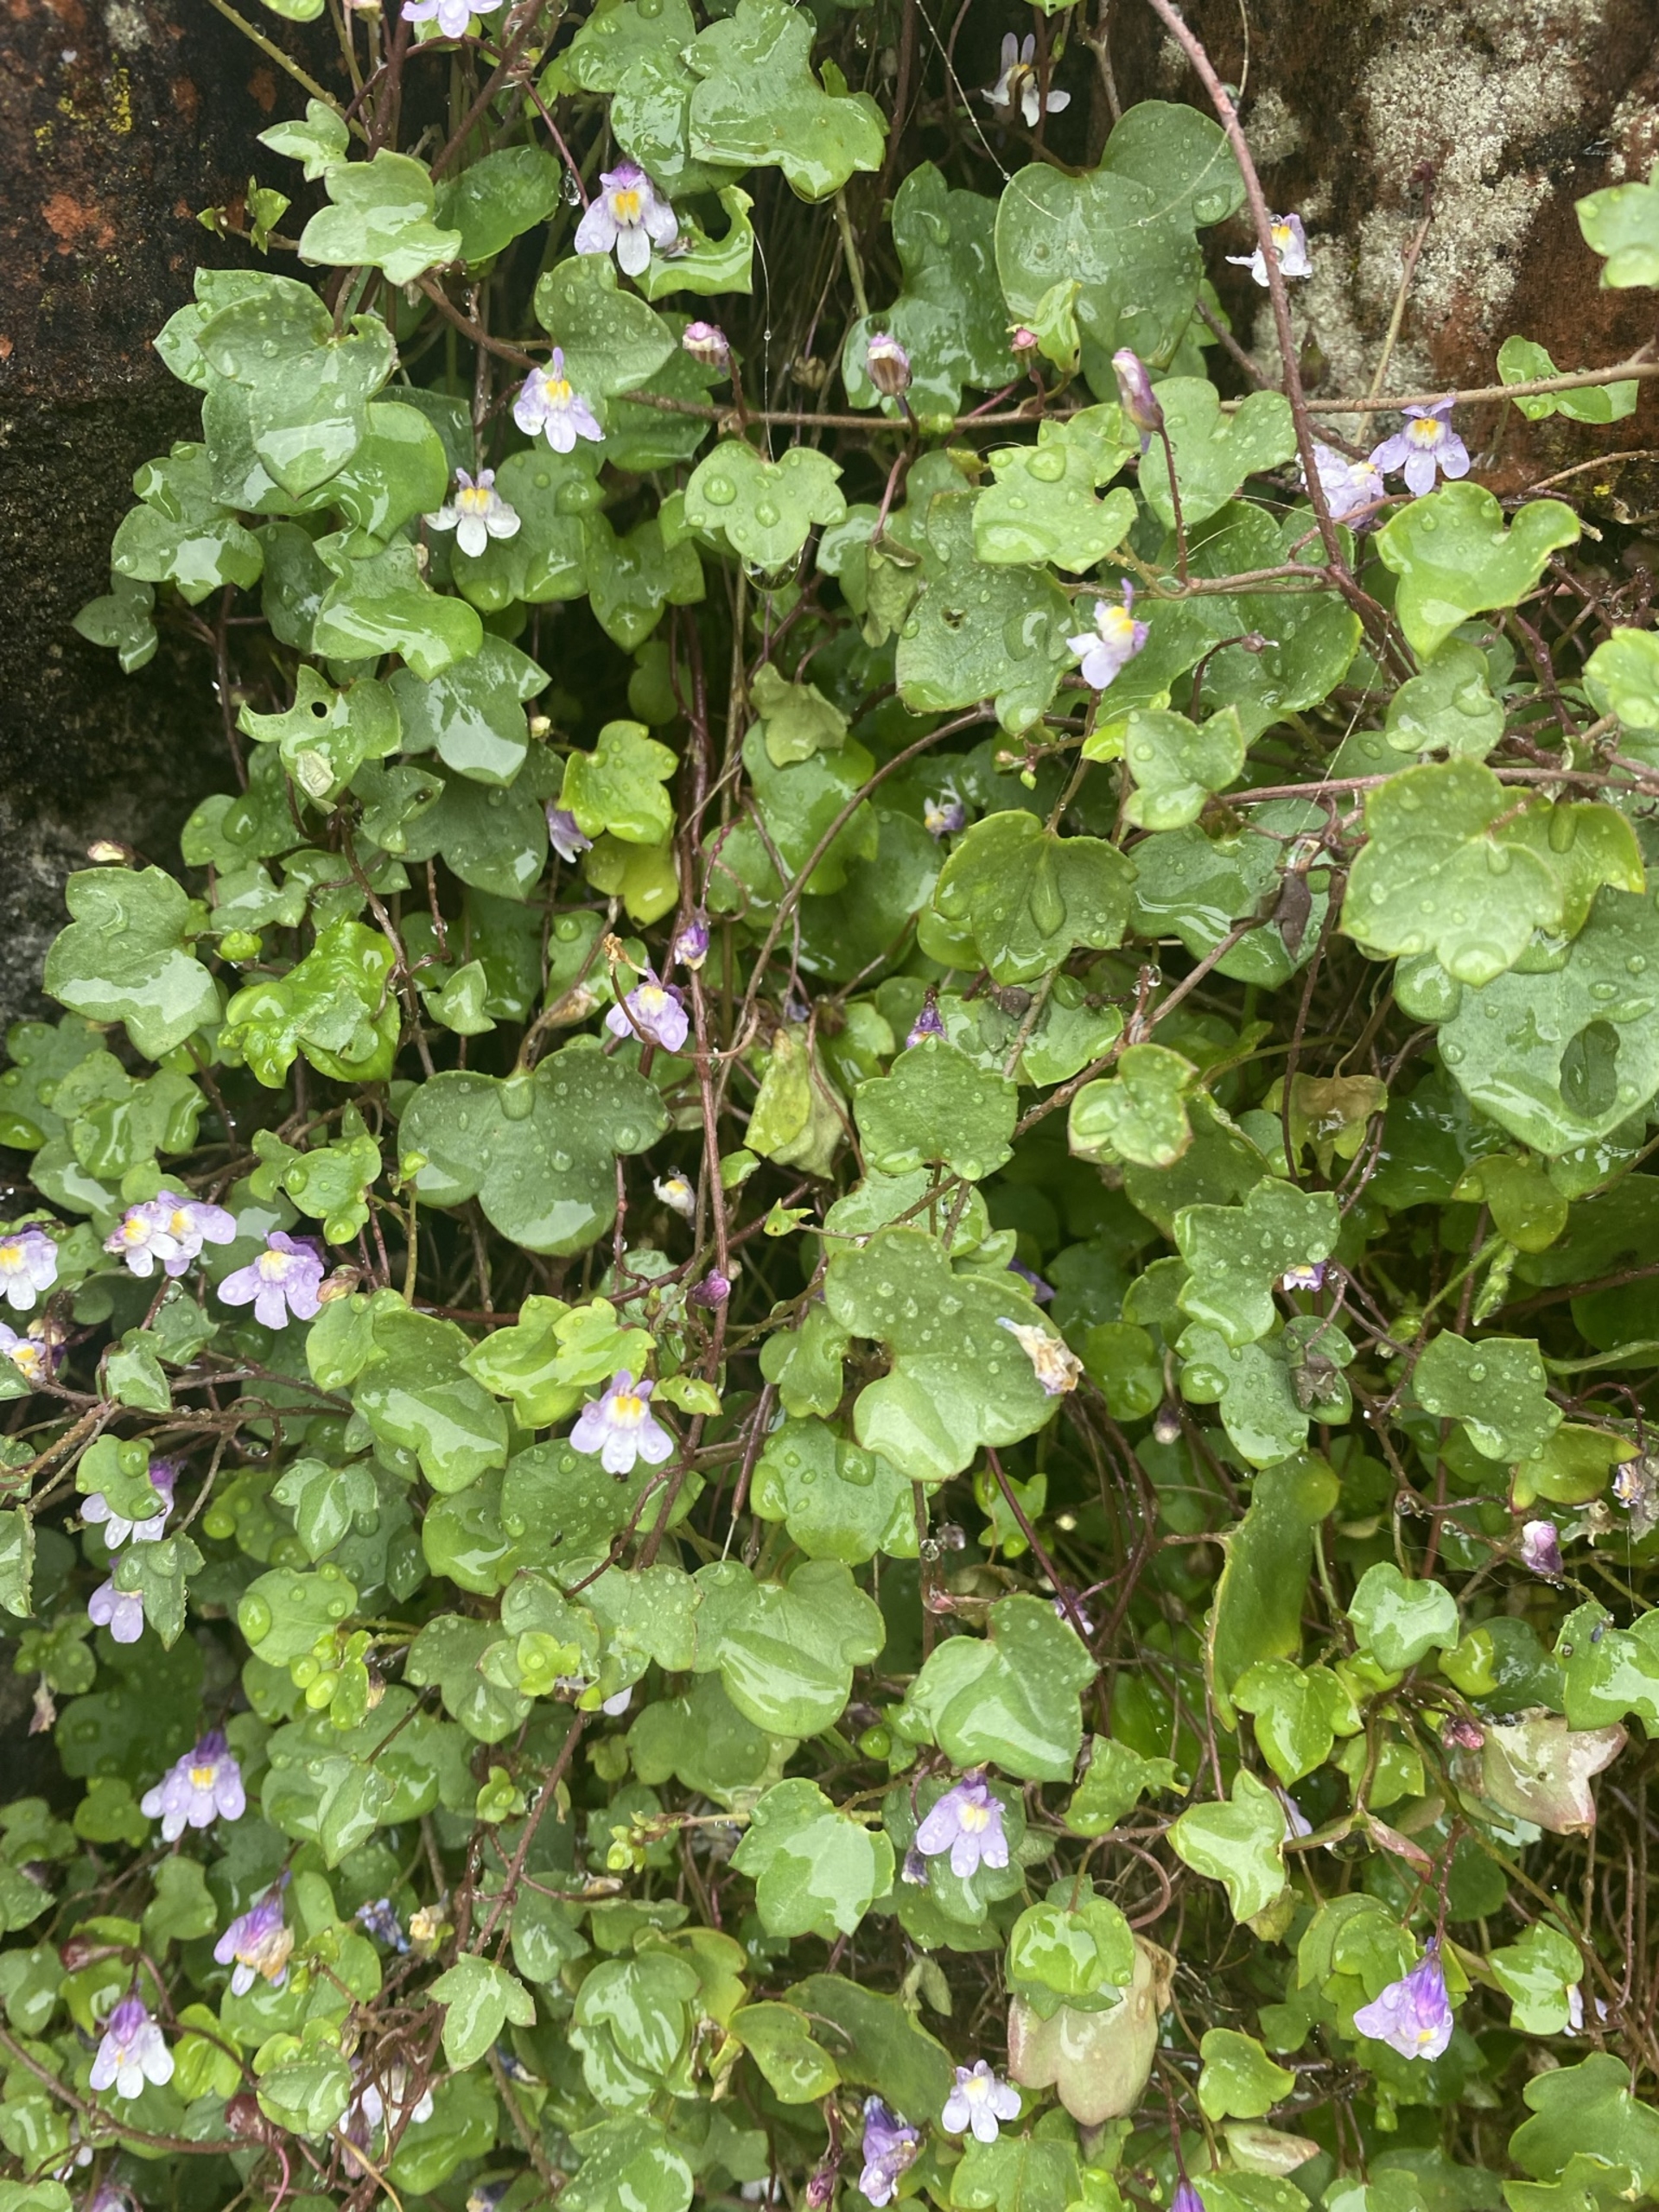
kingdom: Plantae
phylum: Tracheophyta
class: Magnoliopsida
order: Lamiales
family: Plantaginaceae
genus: Cymbalaria
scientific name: Cymbalaria muralis
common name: Vedbend-torskemund
